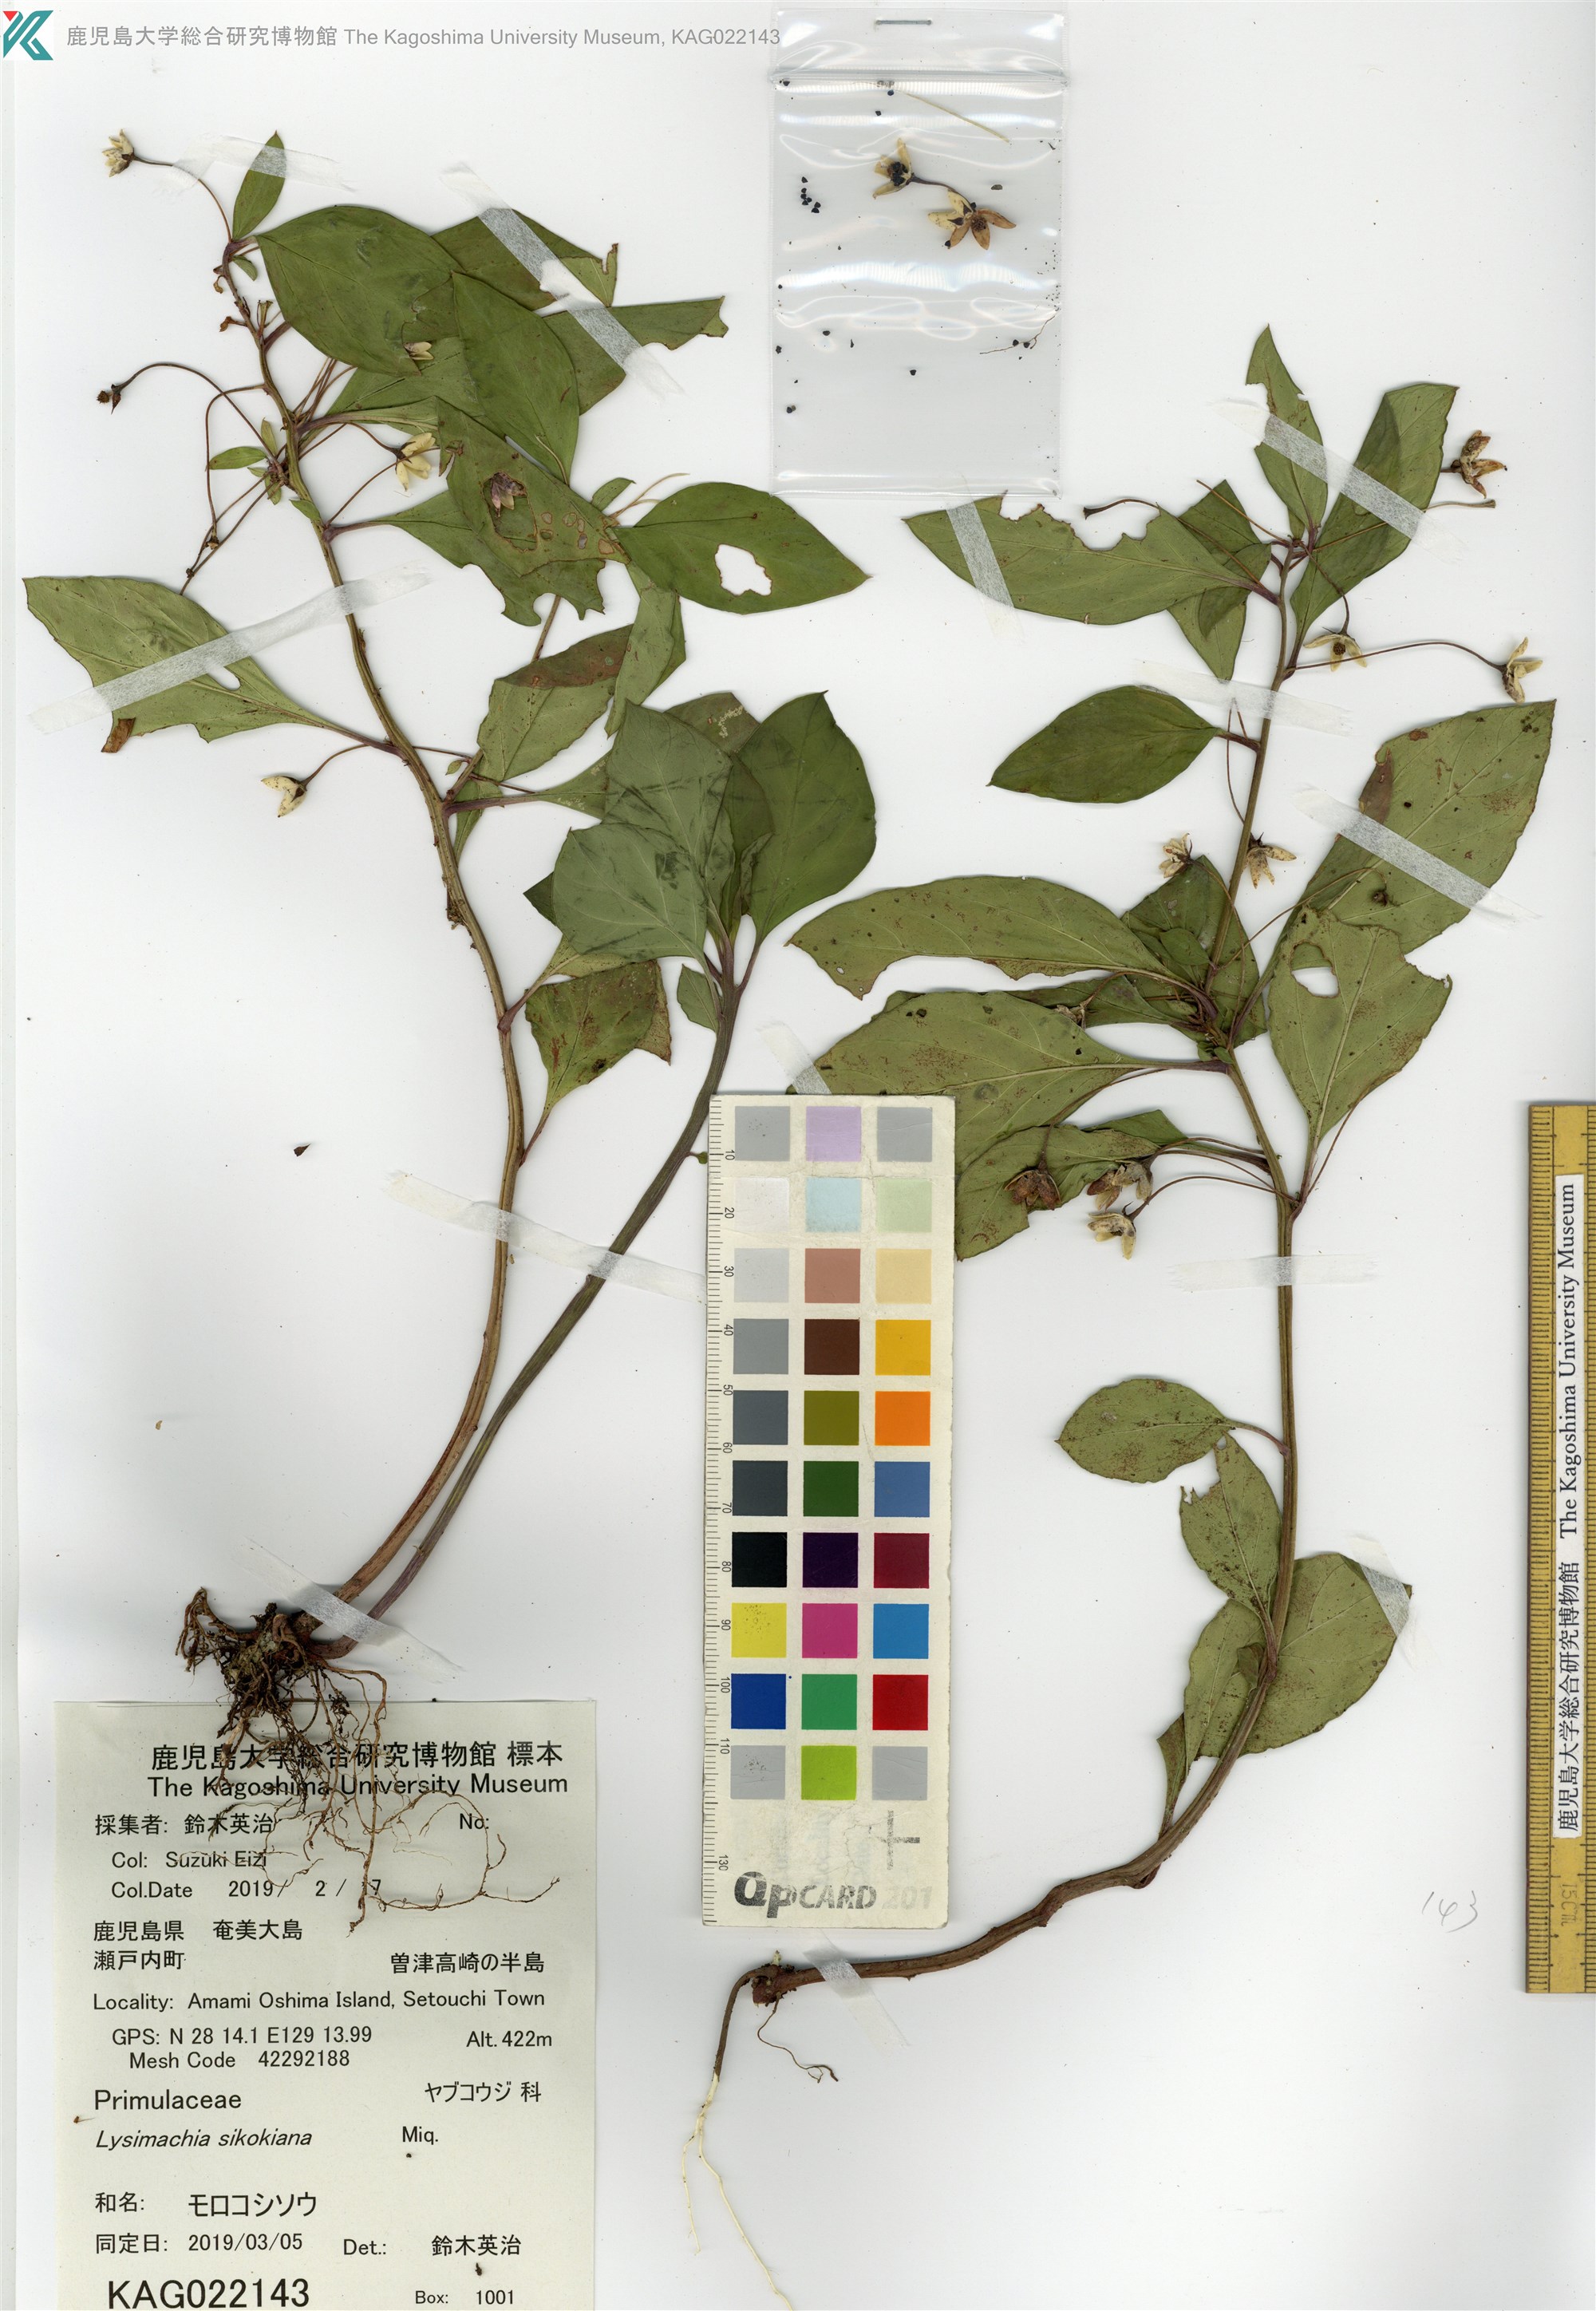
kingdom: Plantae
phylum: Tracheophyta
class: Magnoliopsida
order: Ericales
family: Primulaceae
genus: Lysimachia
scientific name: Lysimachia sikokiana
